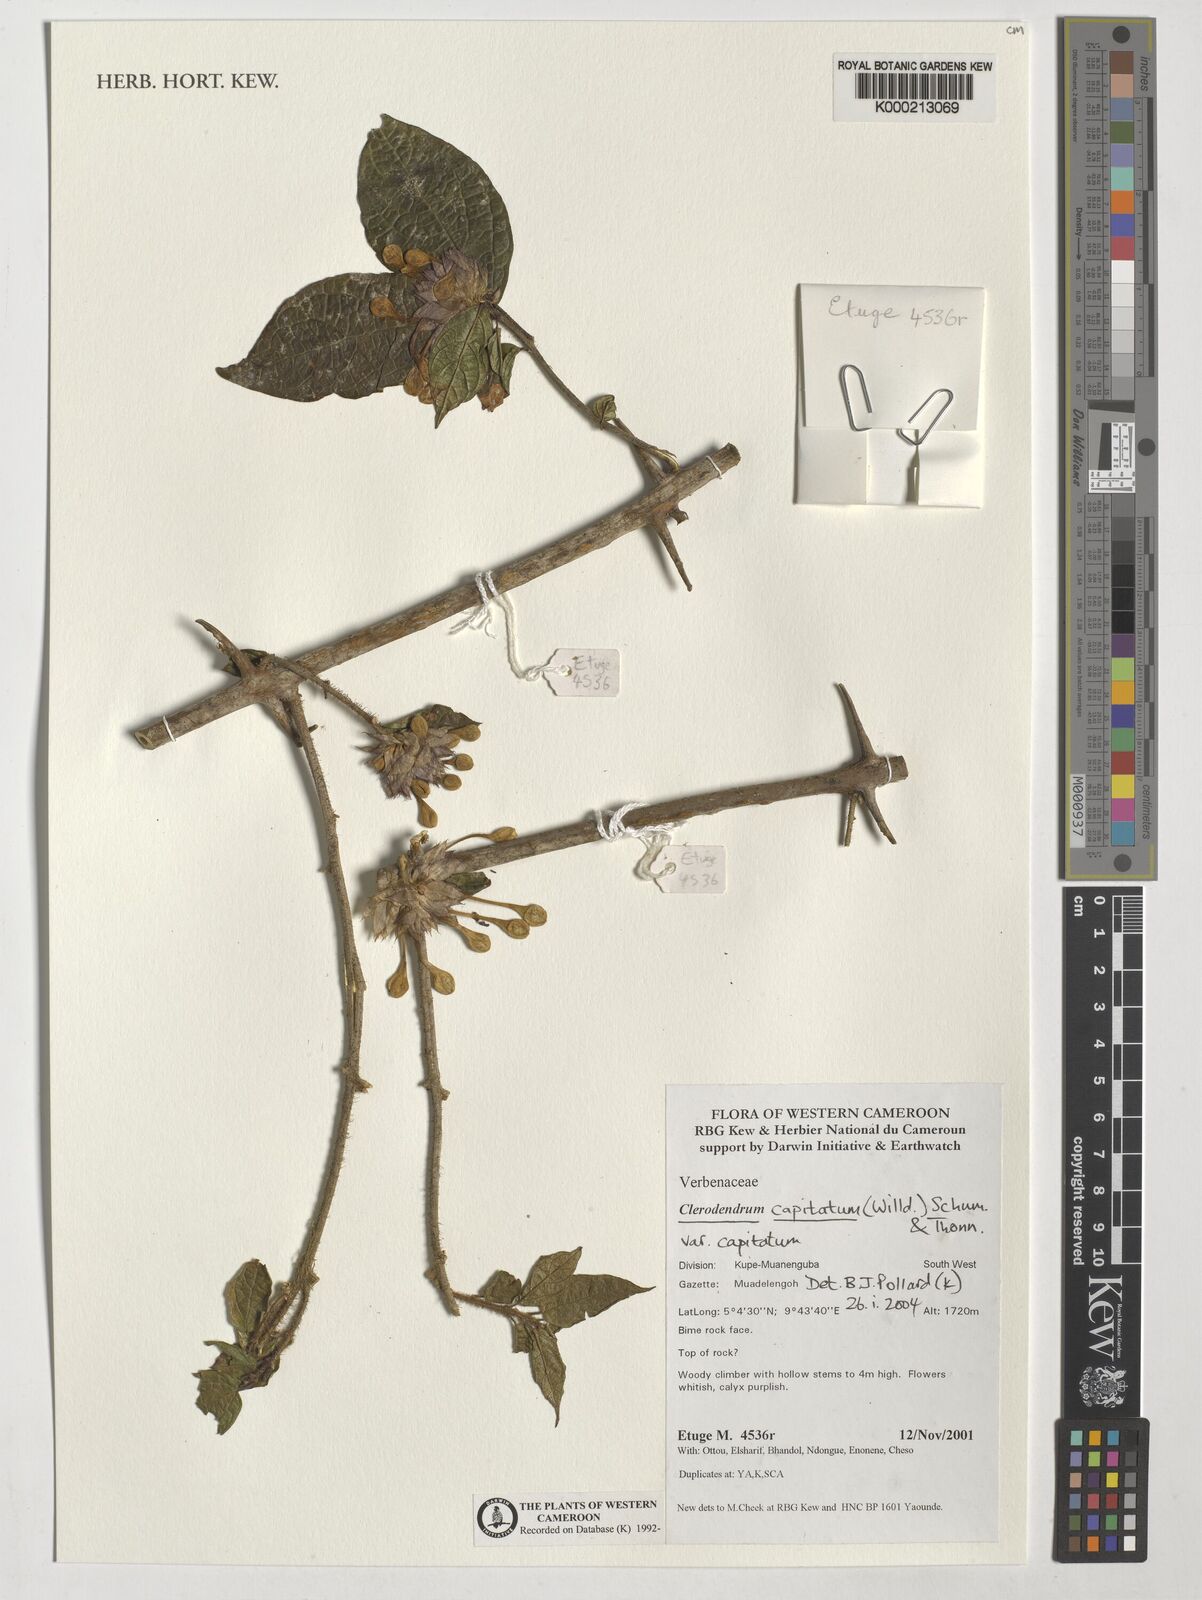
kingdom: Plantae
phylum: Tracheophyta
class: Magnoliopsida
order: Lamiales
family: Lamiaceae
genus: Clerodendrum
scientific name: Clerodendrum capitatum
